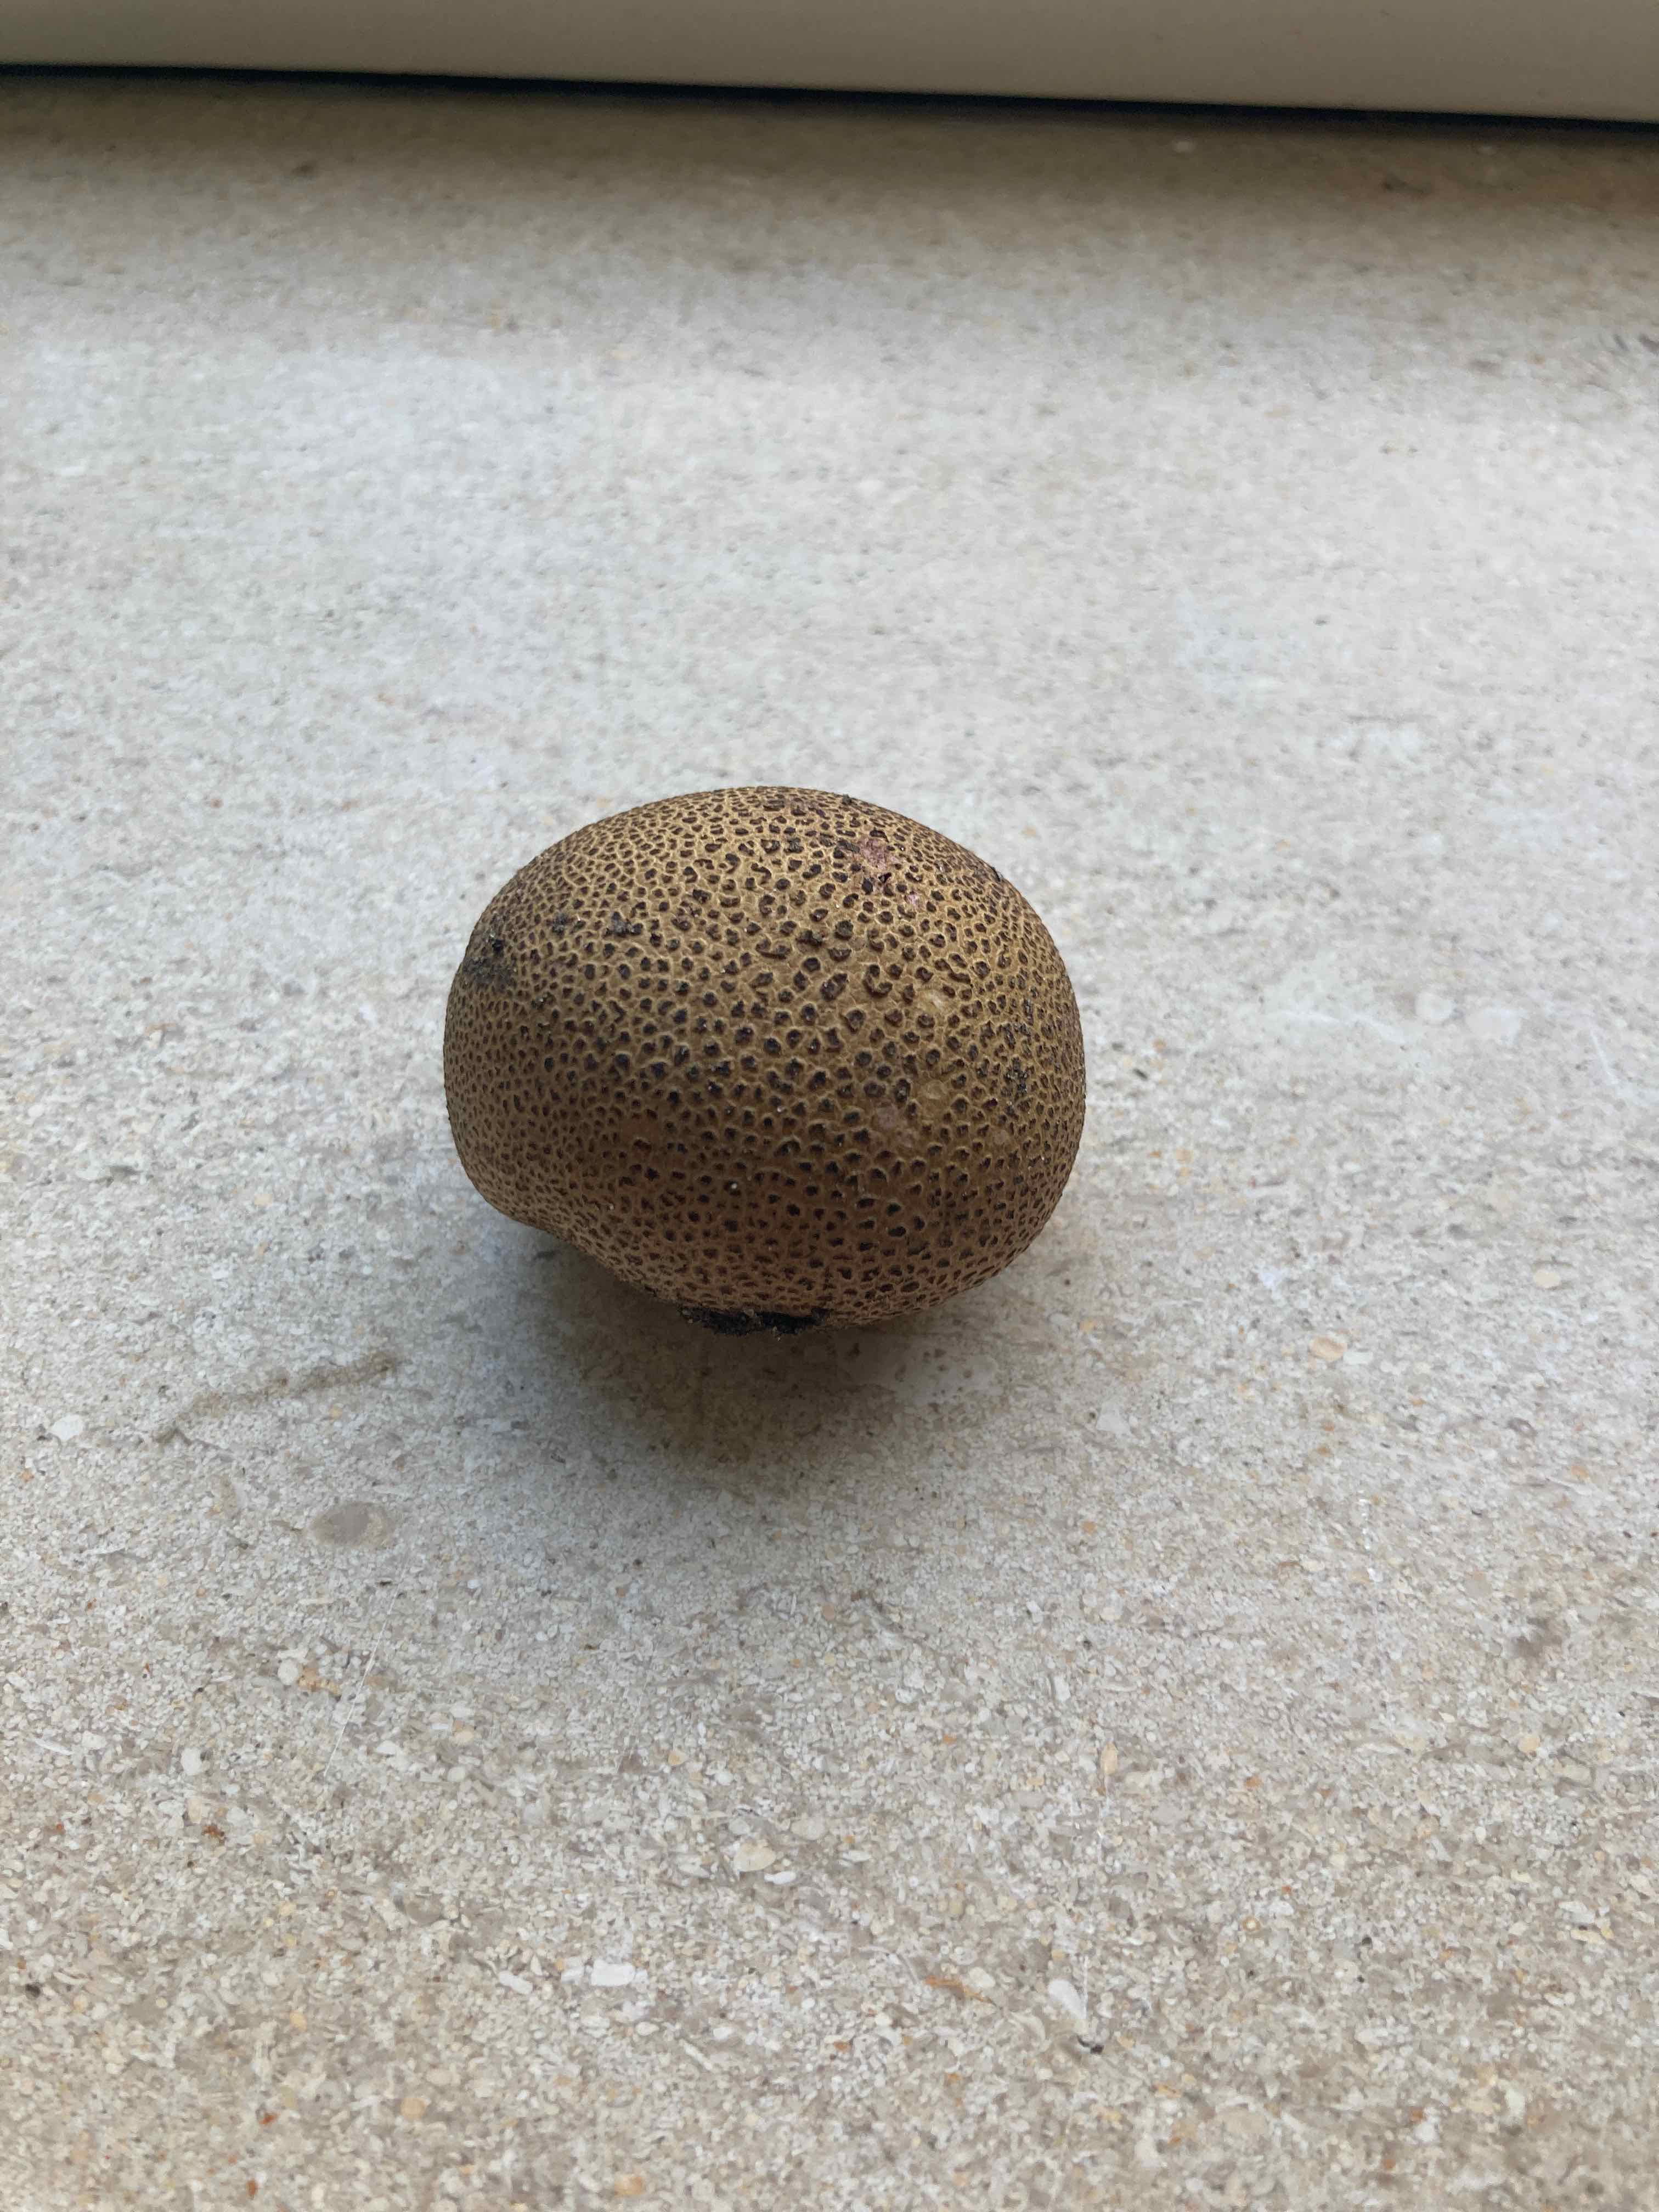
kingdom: Fungi
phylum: Basidiomycota
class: Agaricomycetes
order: Boletales
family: Sclerodermataceae
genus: Scleroderma
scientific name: Scleroderma
